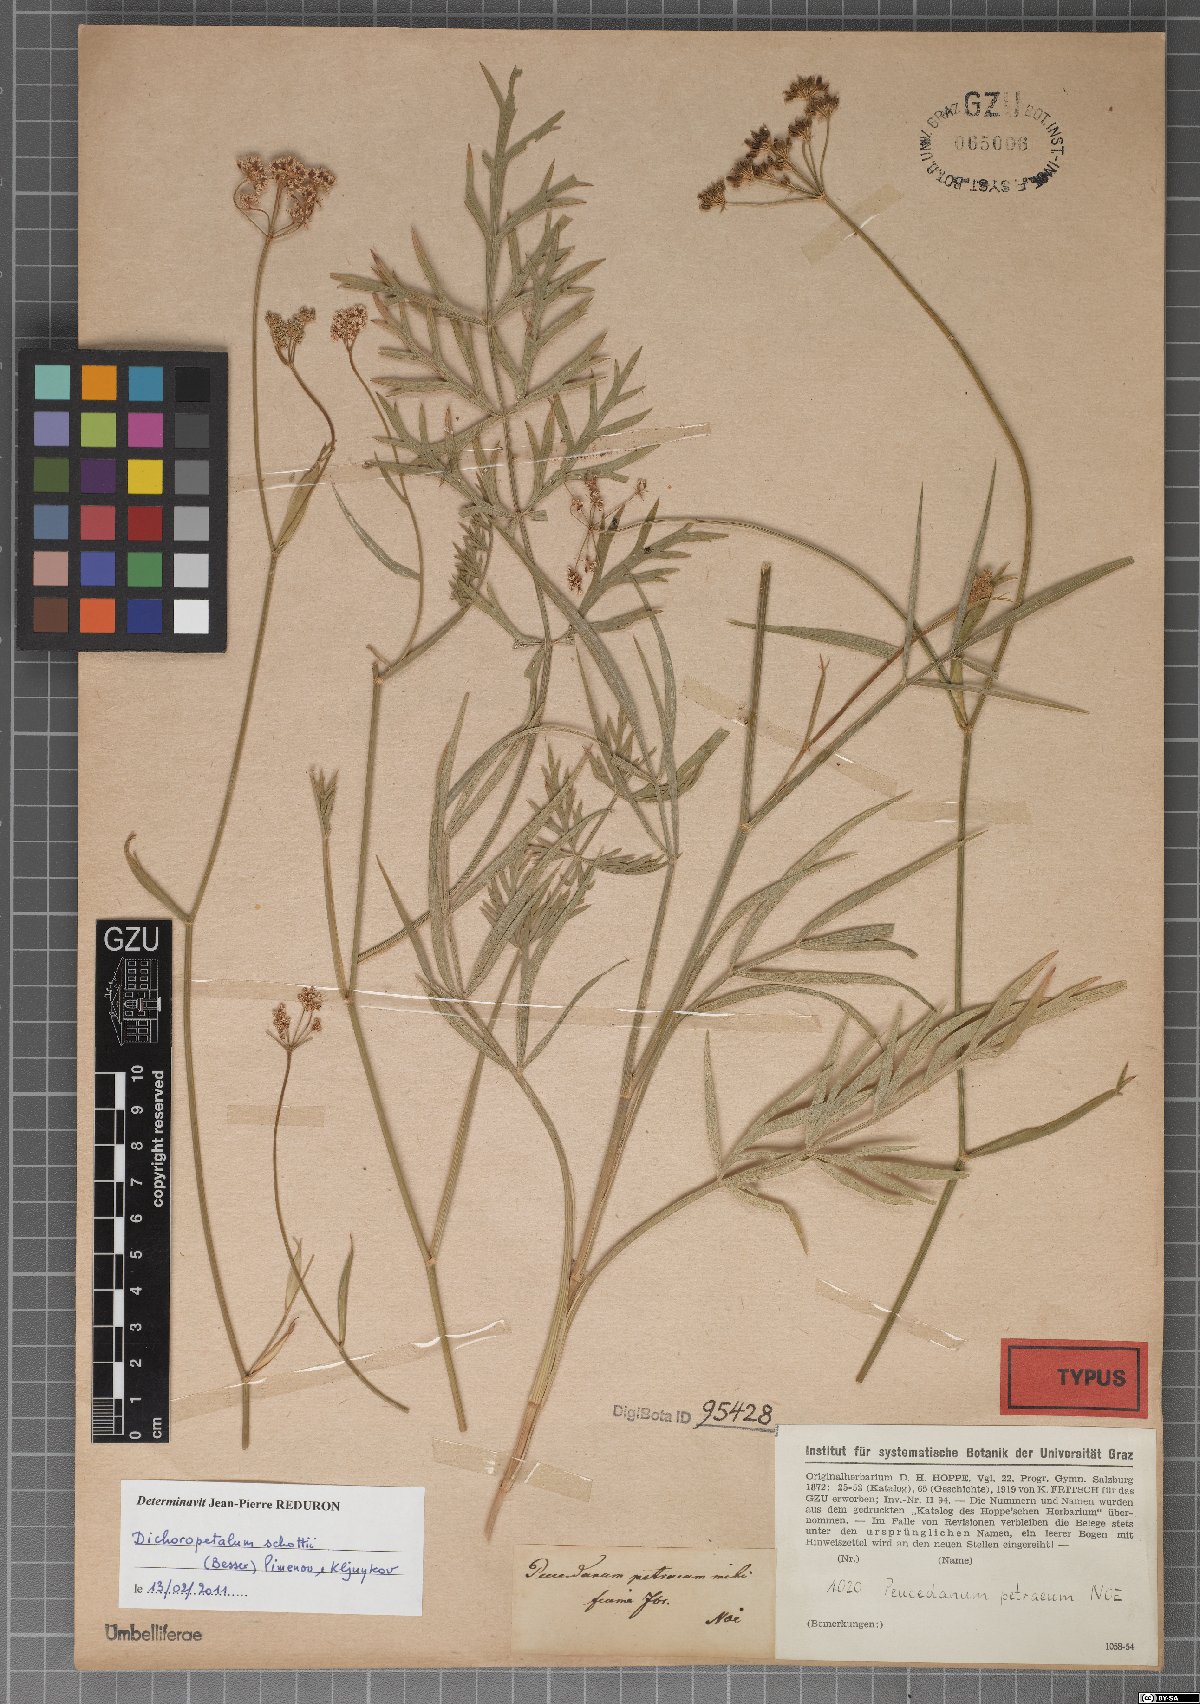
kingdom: Plantae
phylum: Tracheophyta
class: Magnoliopsida
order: Apiales
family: Apiaceae
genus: Dichoropetalum
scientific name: Dichoropetalum schottii
